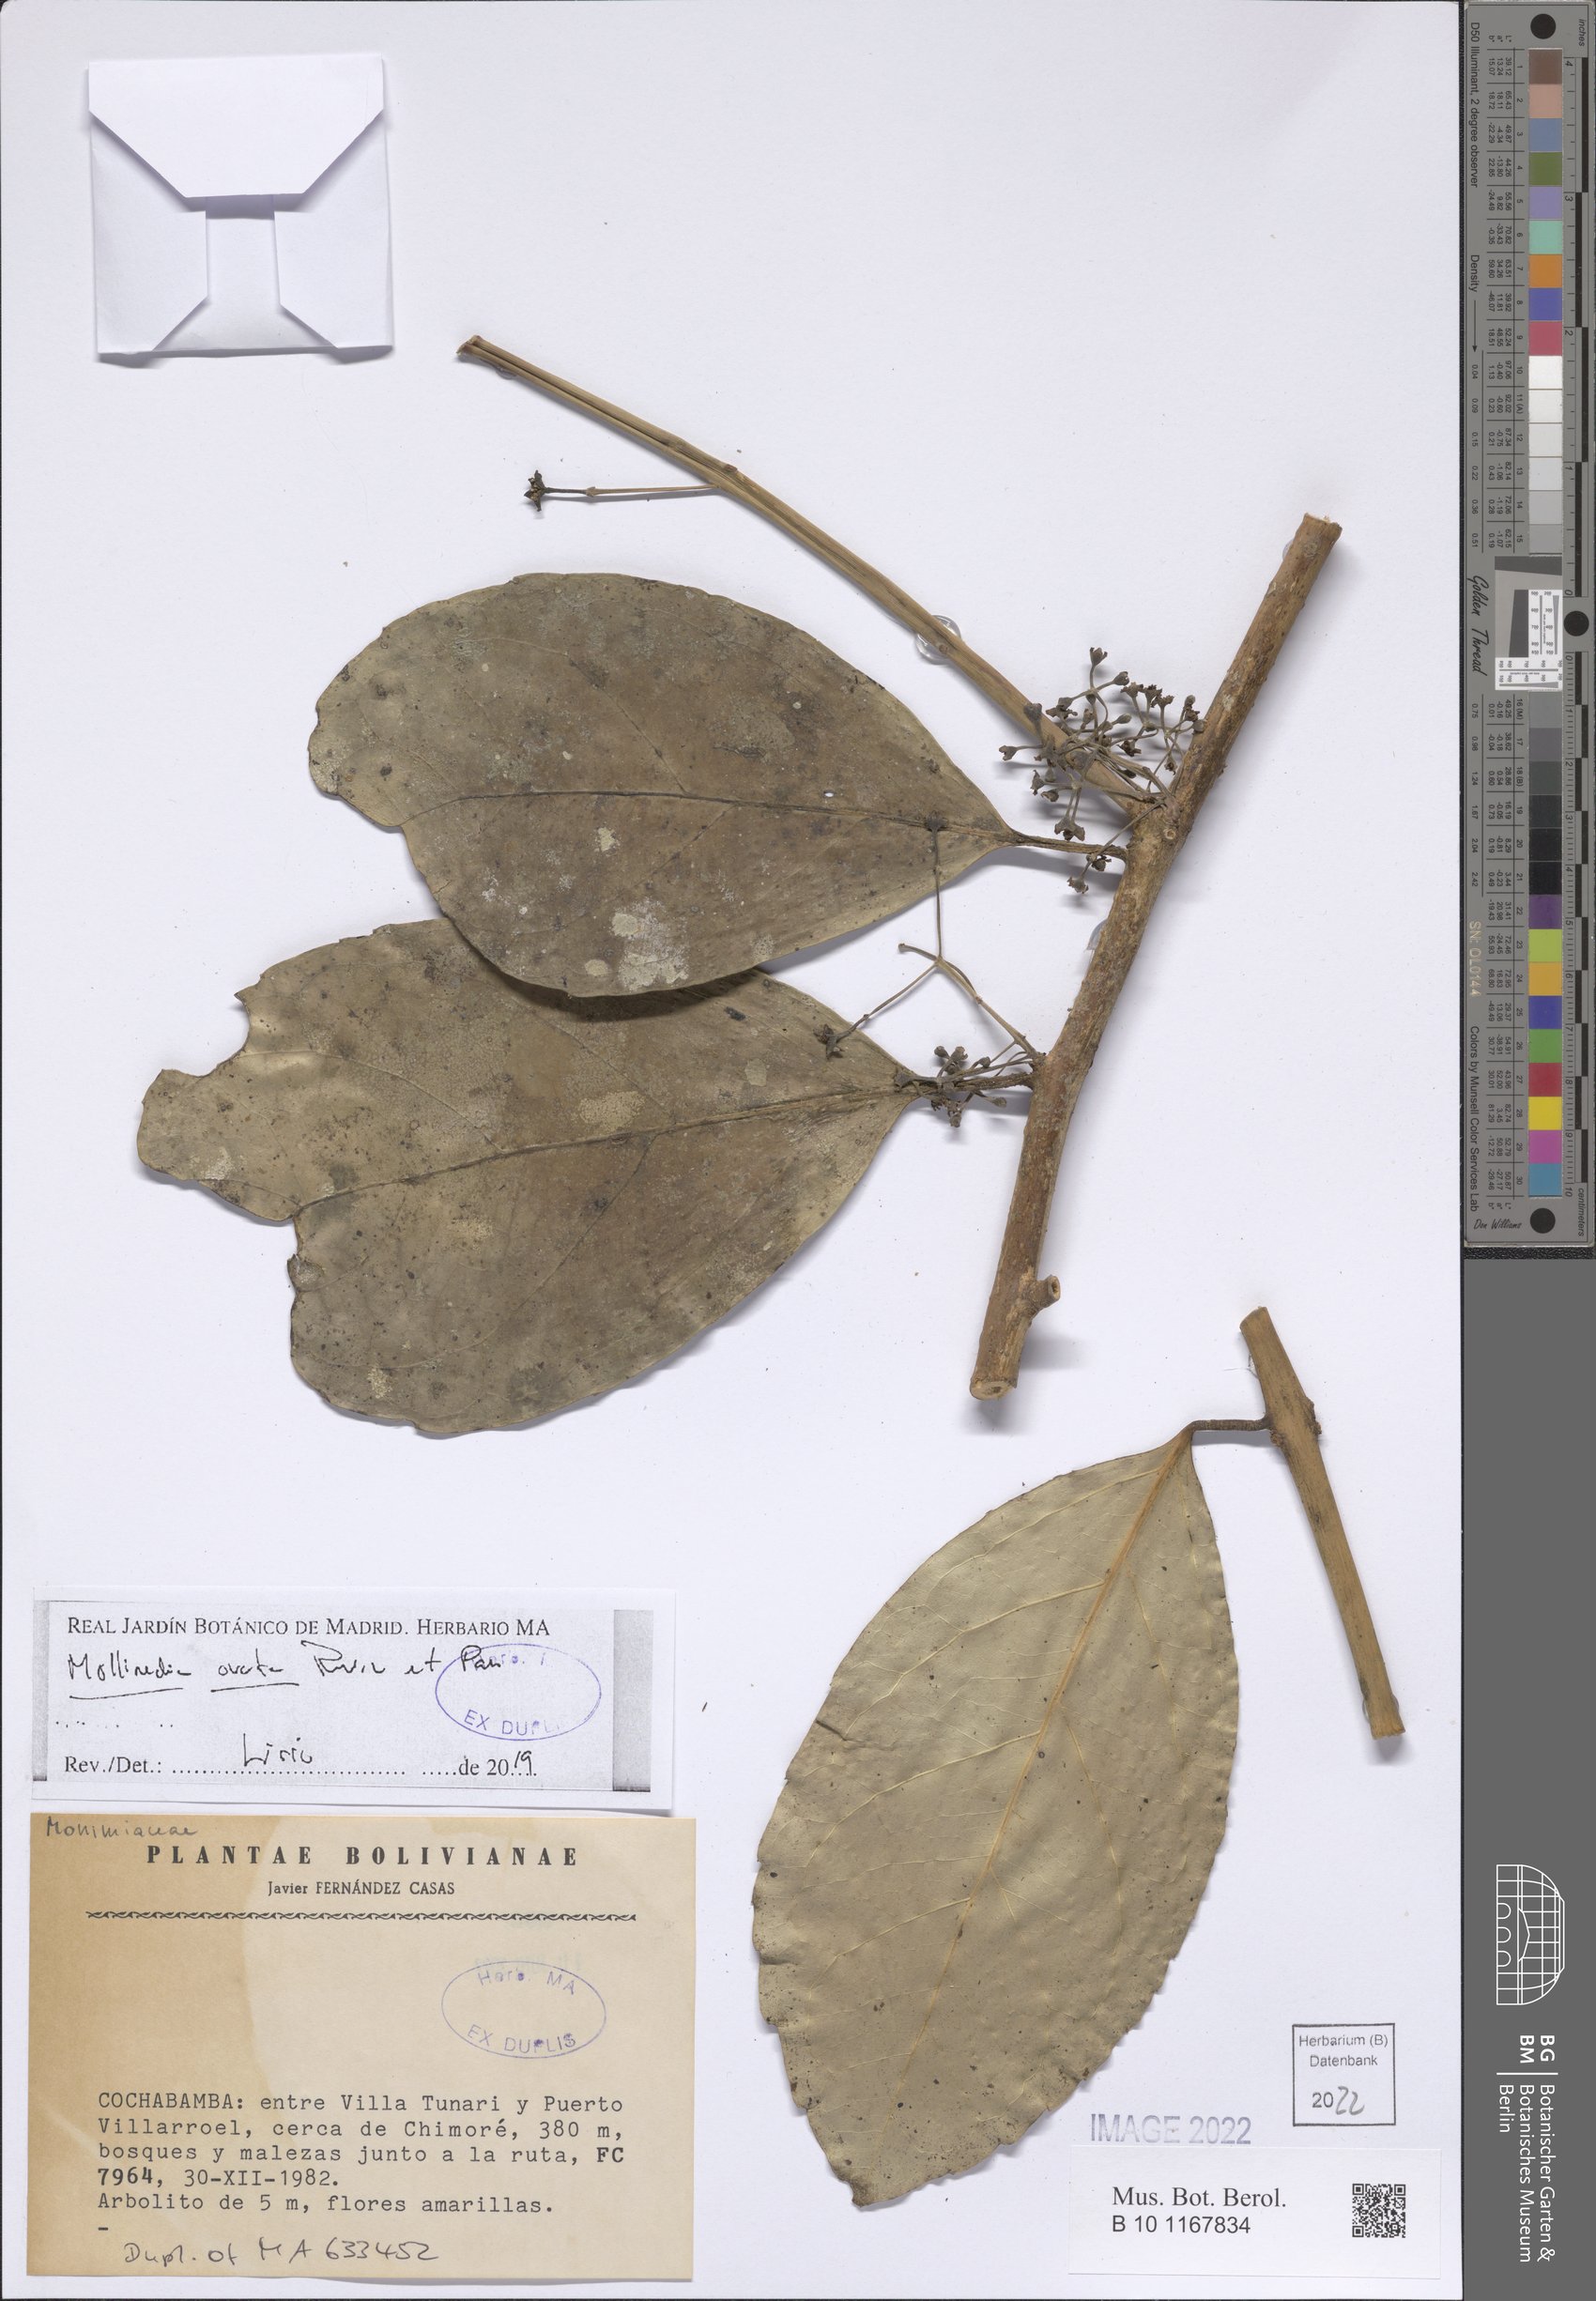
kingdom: Plantae
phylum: Tracheophyta
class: Magnoliopsida
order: Laurales
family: Monimiaceae
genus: Mollinedia
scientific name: Mollinedia ovata
